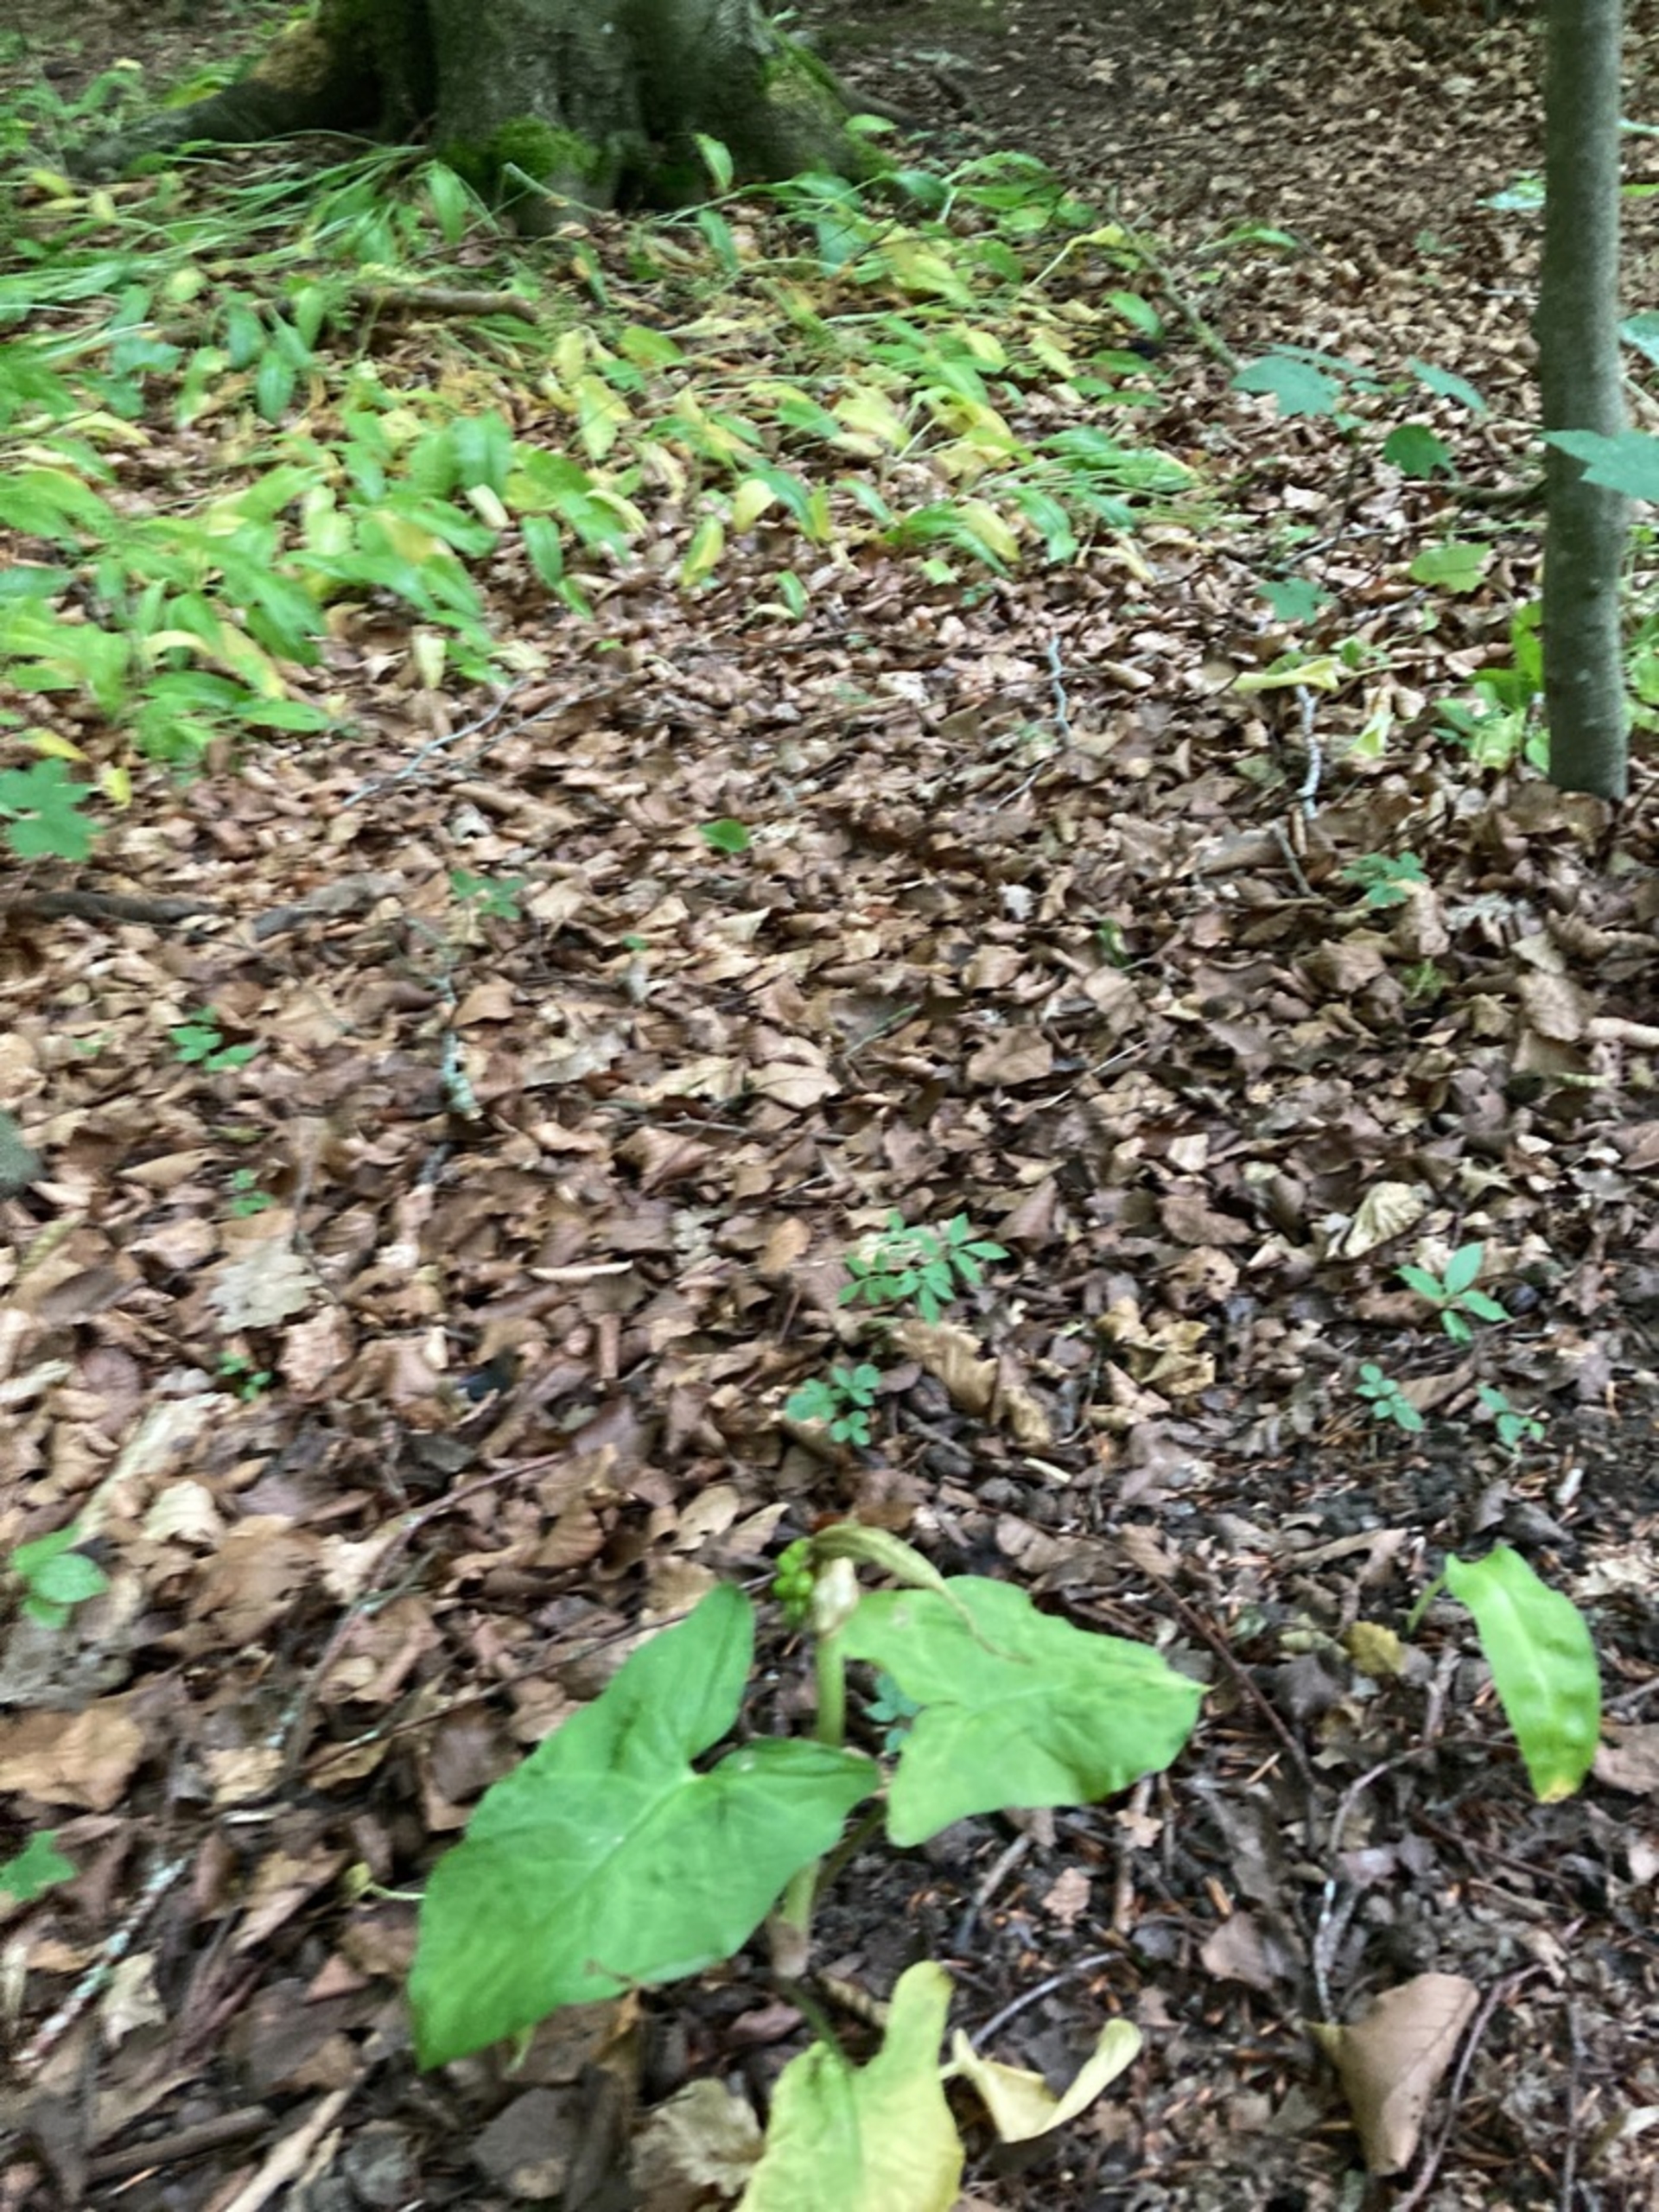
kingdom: Plantae
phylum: Tracheophyta
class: Liliopsida
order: Alismatales
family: Araceae
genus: Arum
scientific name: Arum
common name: Arumslægten
